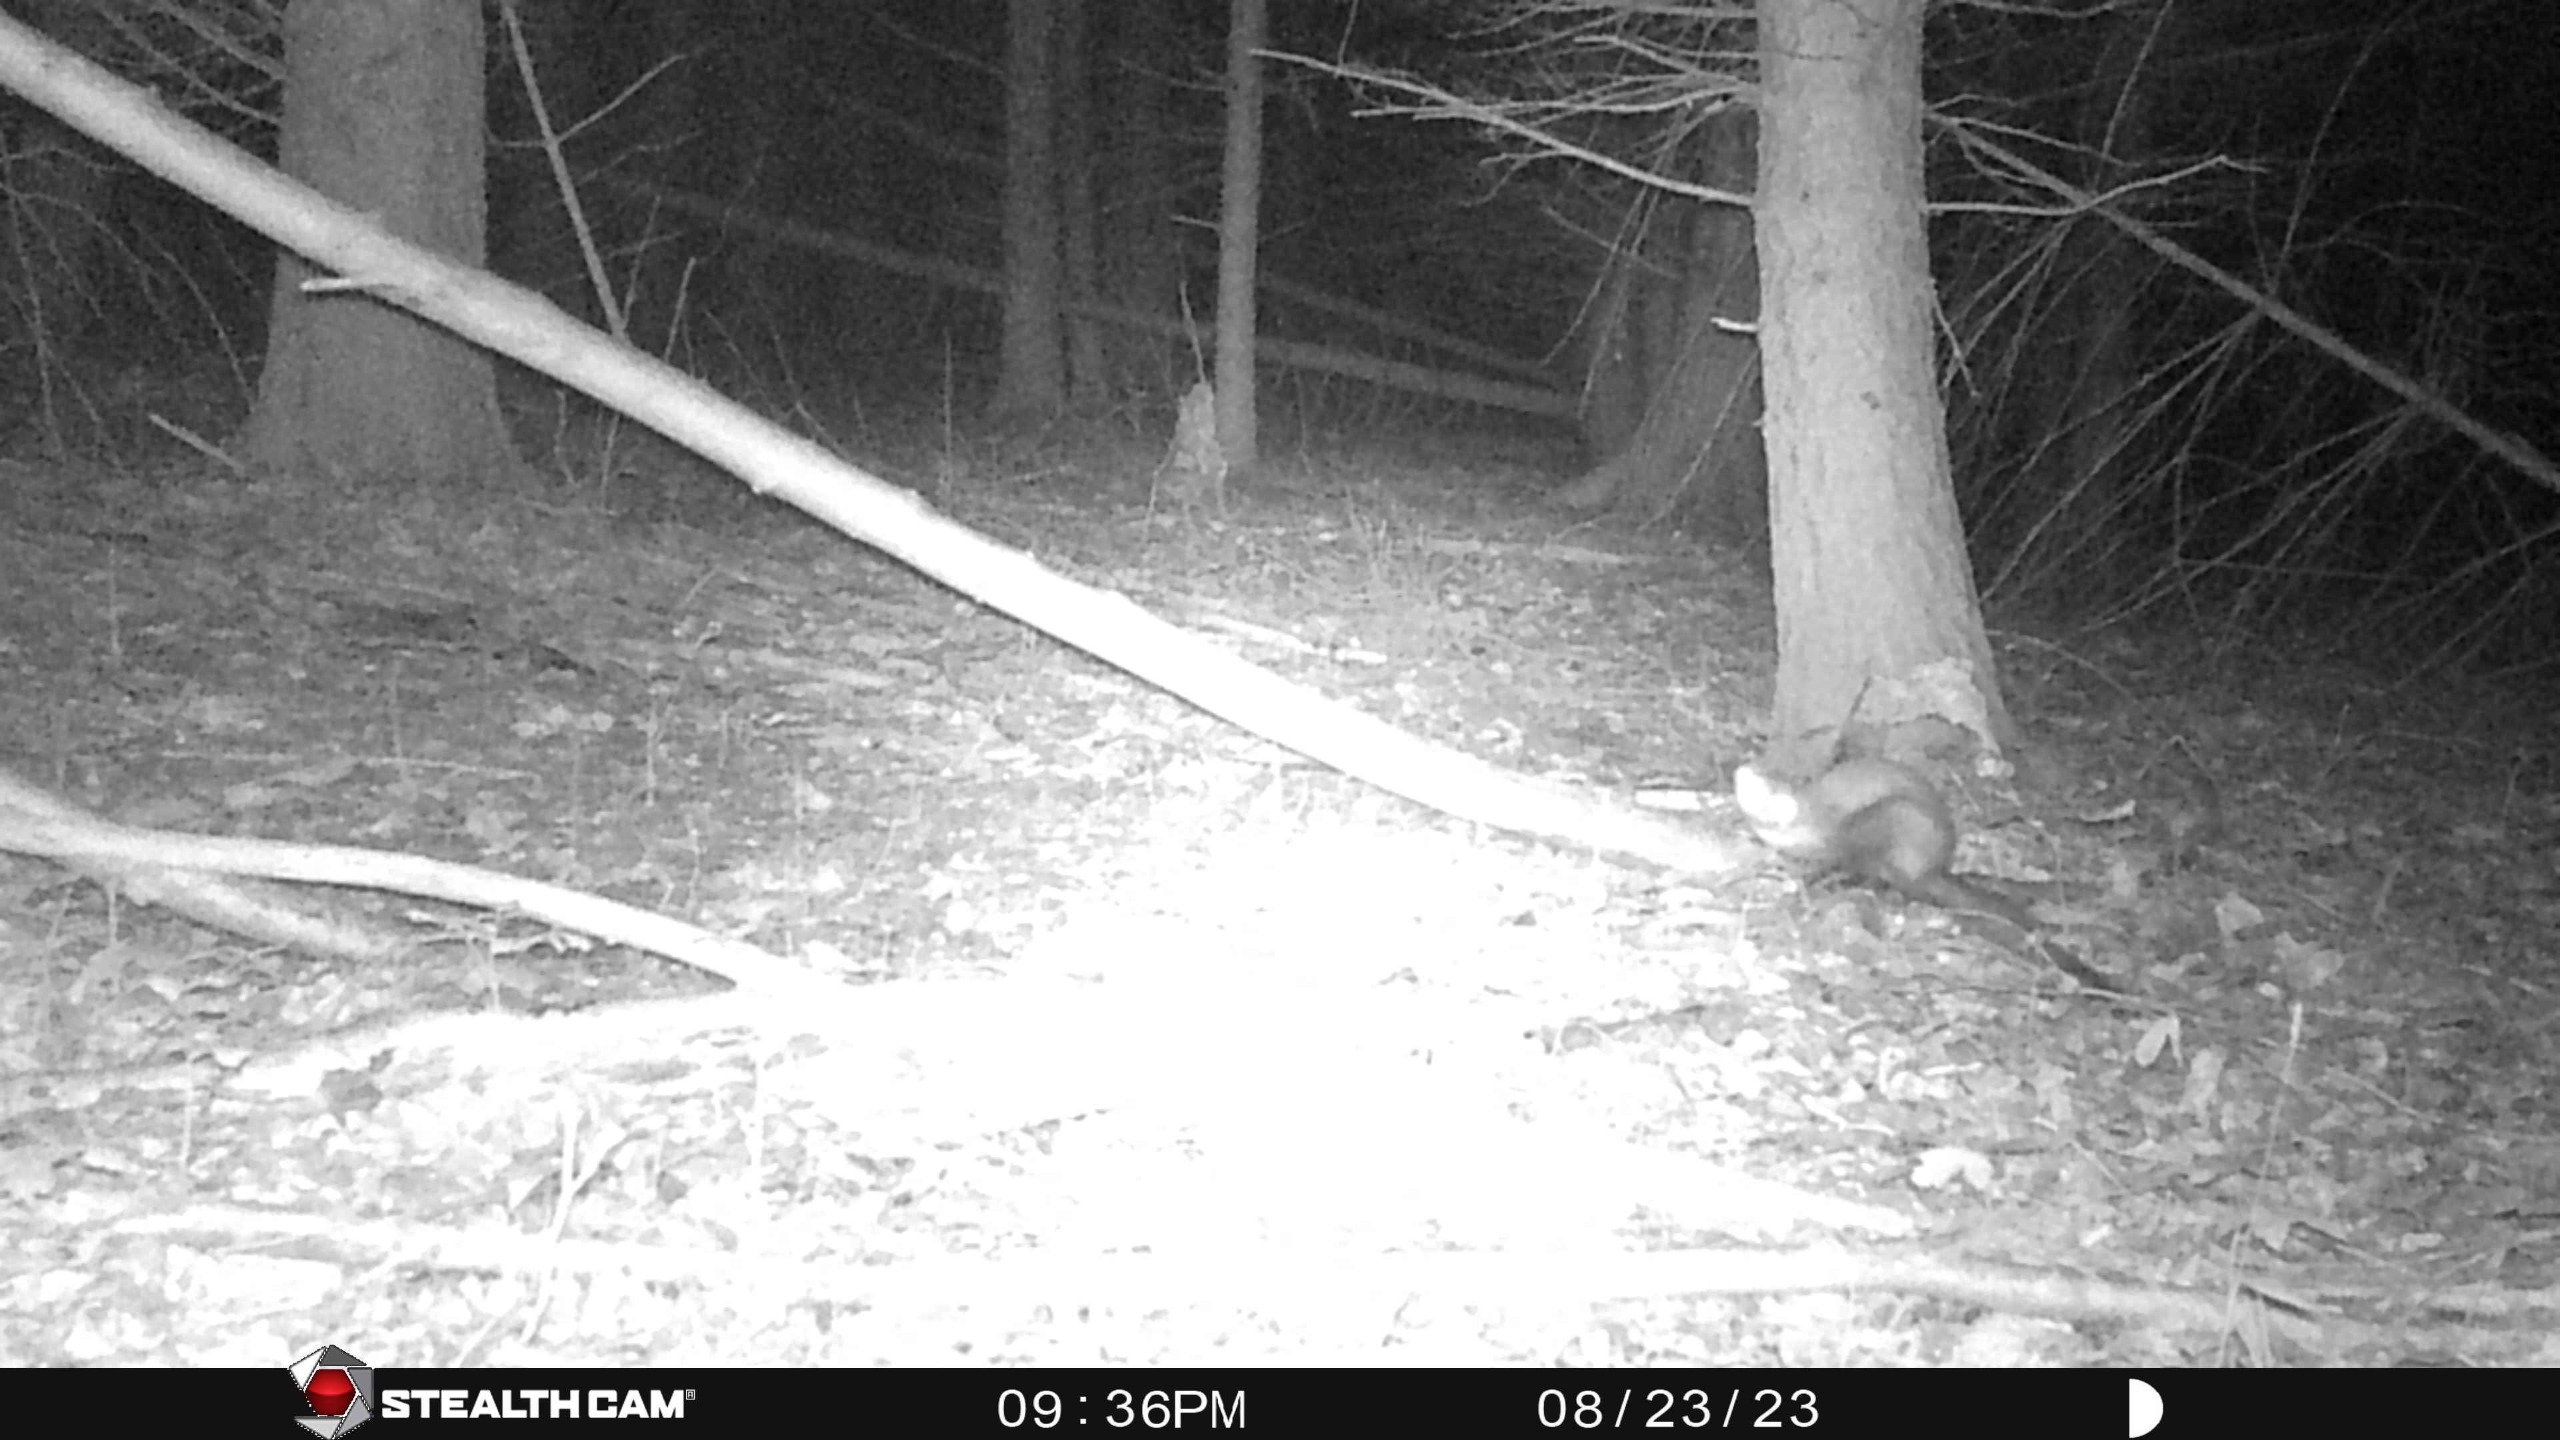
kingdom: Animalia
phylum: Chordata
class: Mammalia
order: Carnivora
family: Mustelidae
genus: Martes
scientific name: Martes foina
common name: Husmår
